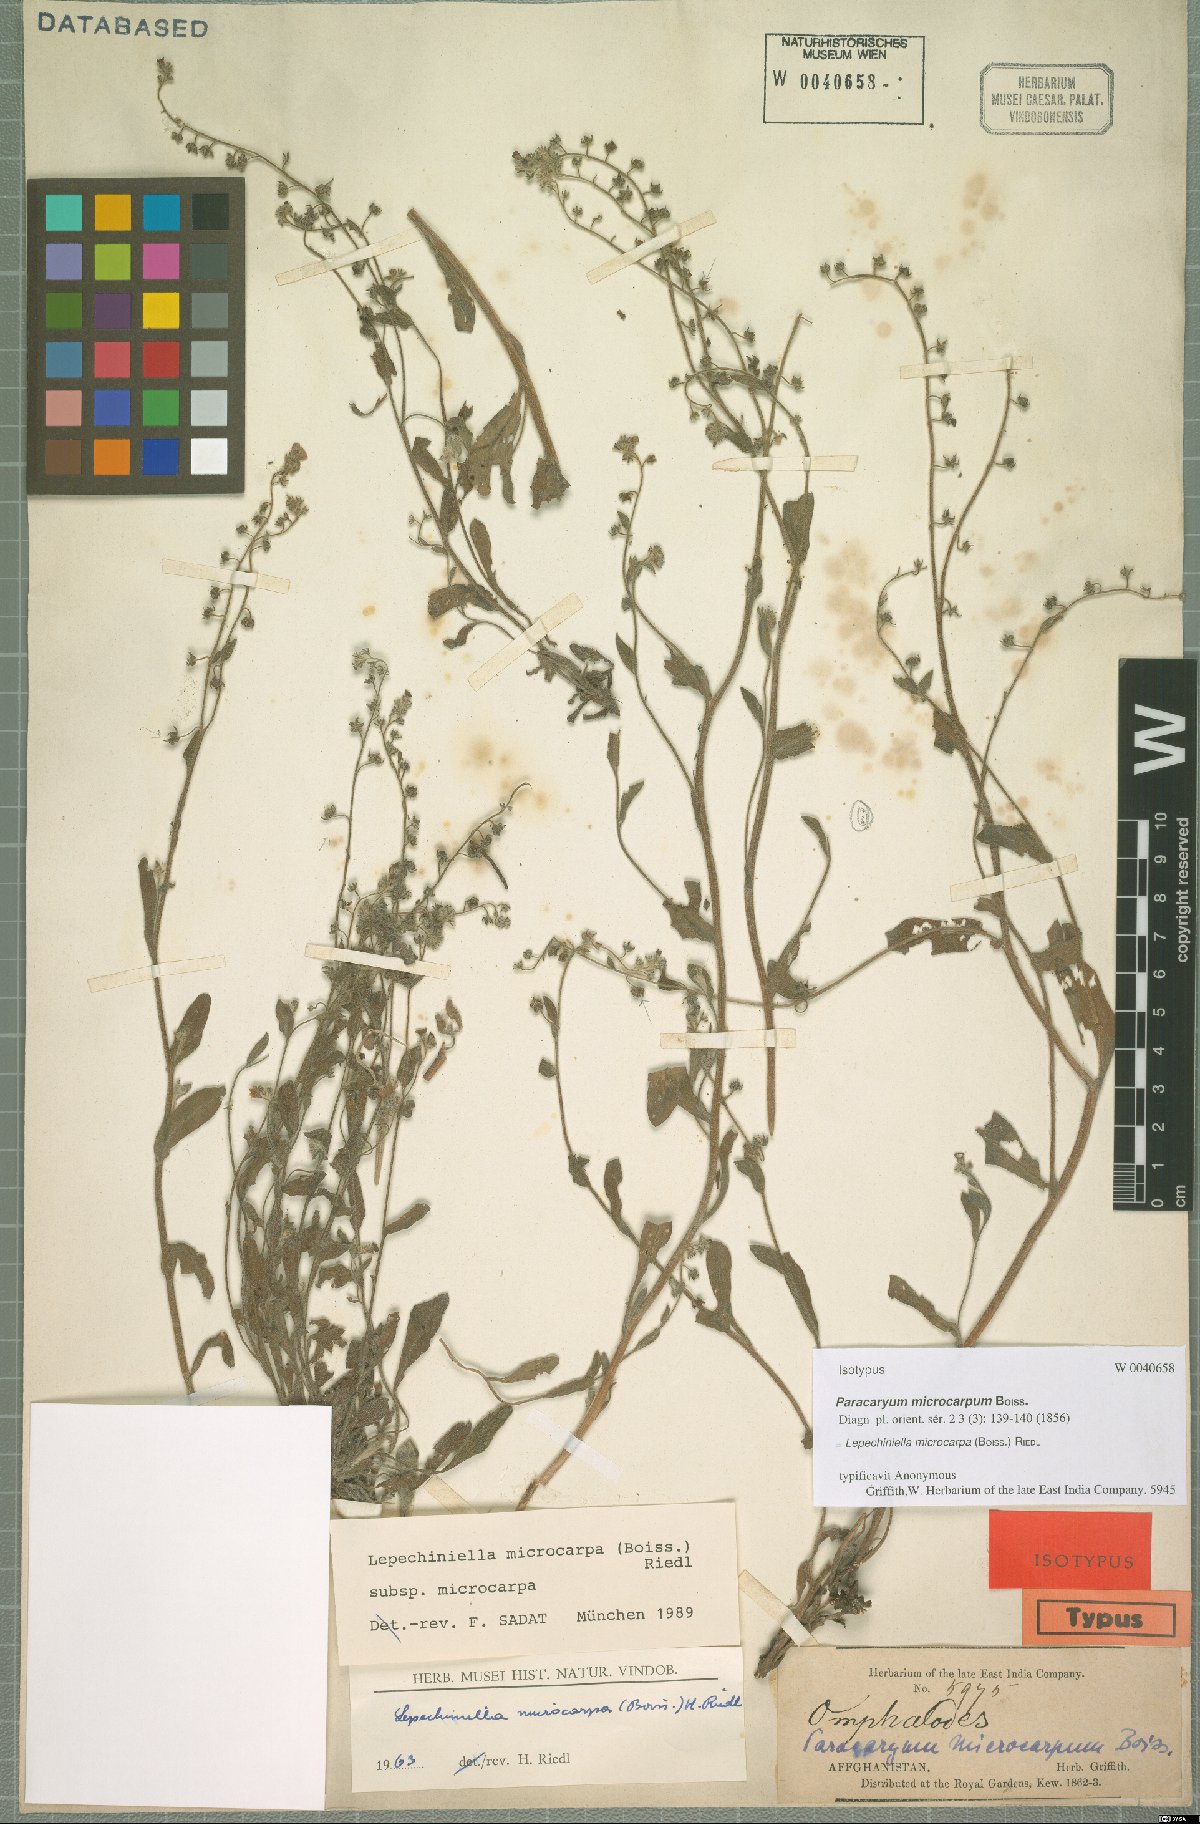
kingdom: Plantae
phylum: Tracheophyta
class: Magnoliopsida
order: Boraginales
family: Boraginaceae
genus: Lepechiniella
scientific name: Lepechiniella microcarpa
